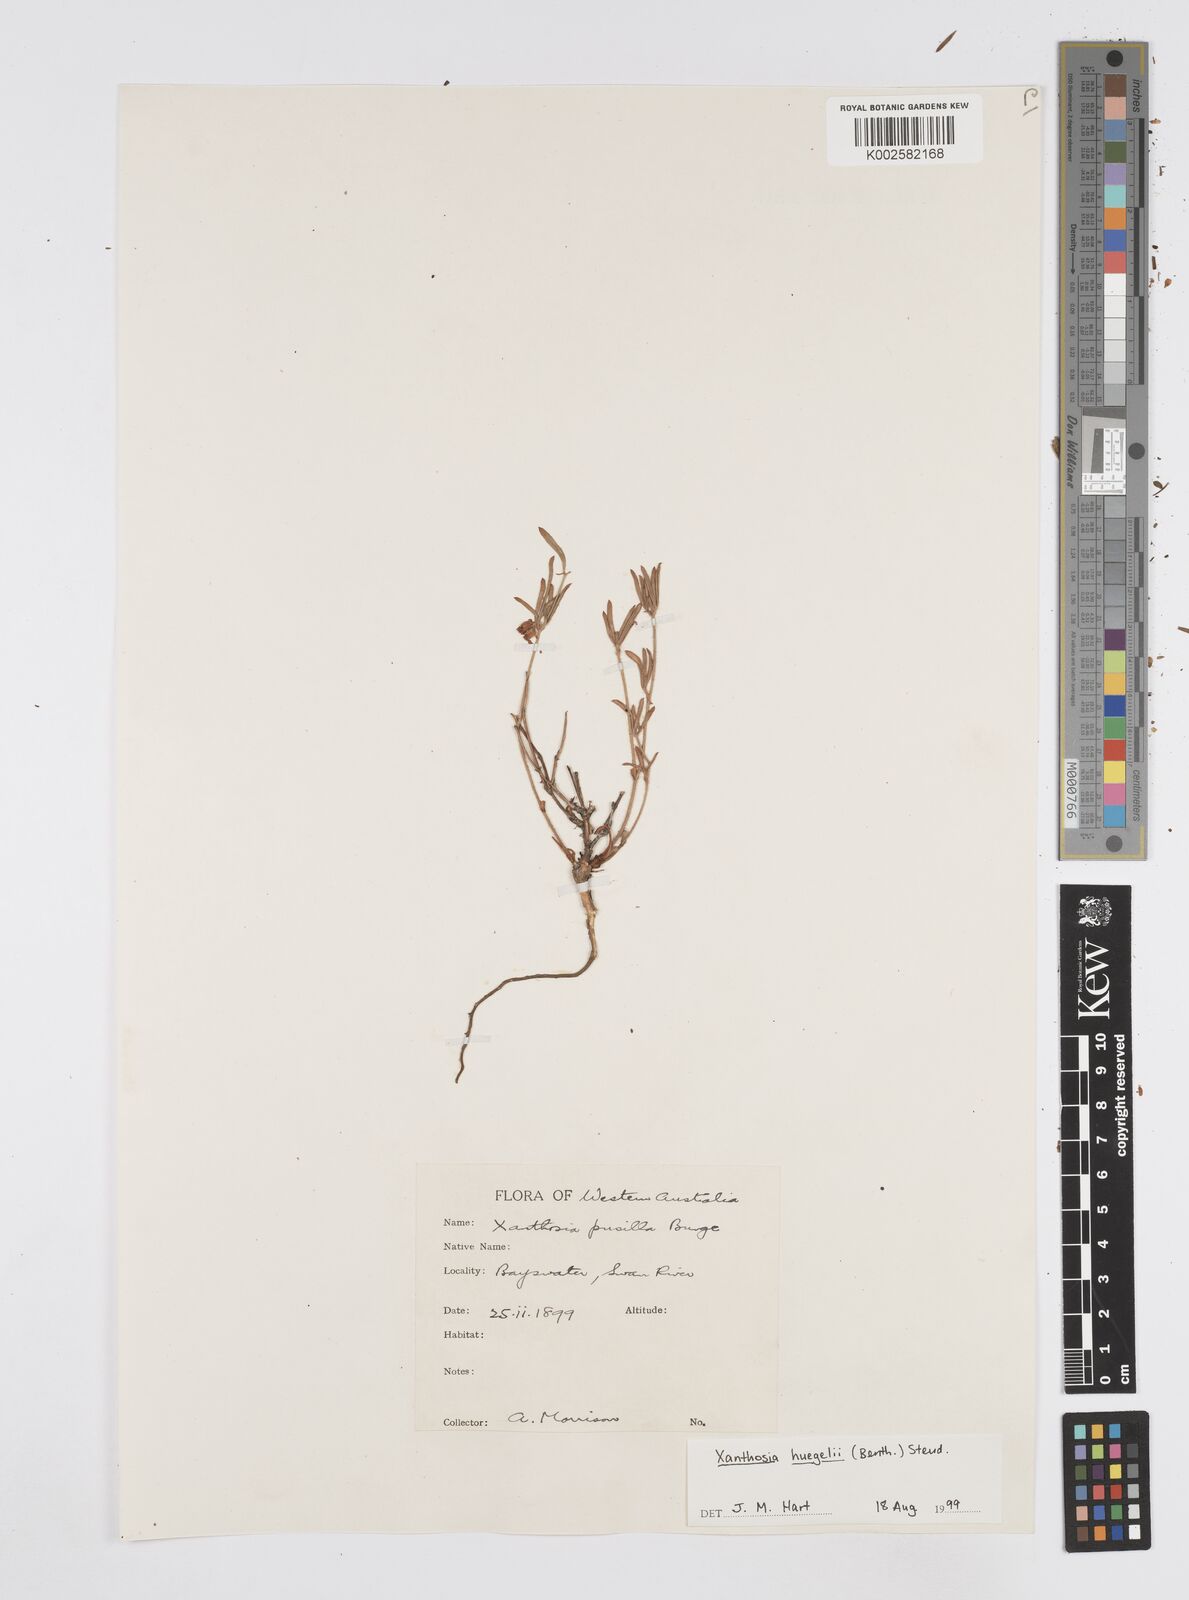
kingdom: Plantae
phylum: Tracheophyta
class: Magnoliopsida
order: Apiales
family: Apiaceae
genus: Xanthosia
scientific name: Xanthosia huegelii
